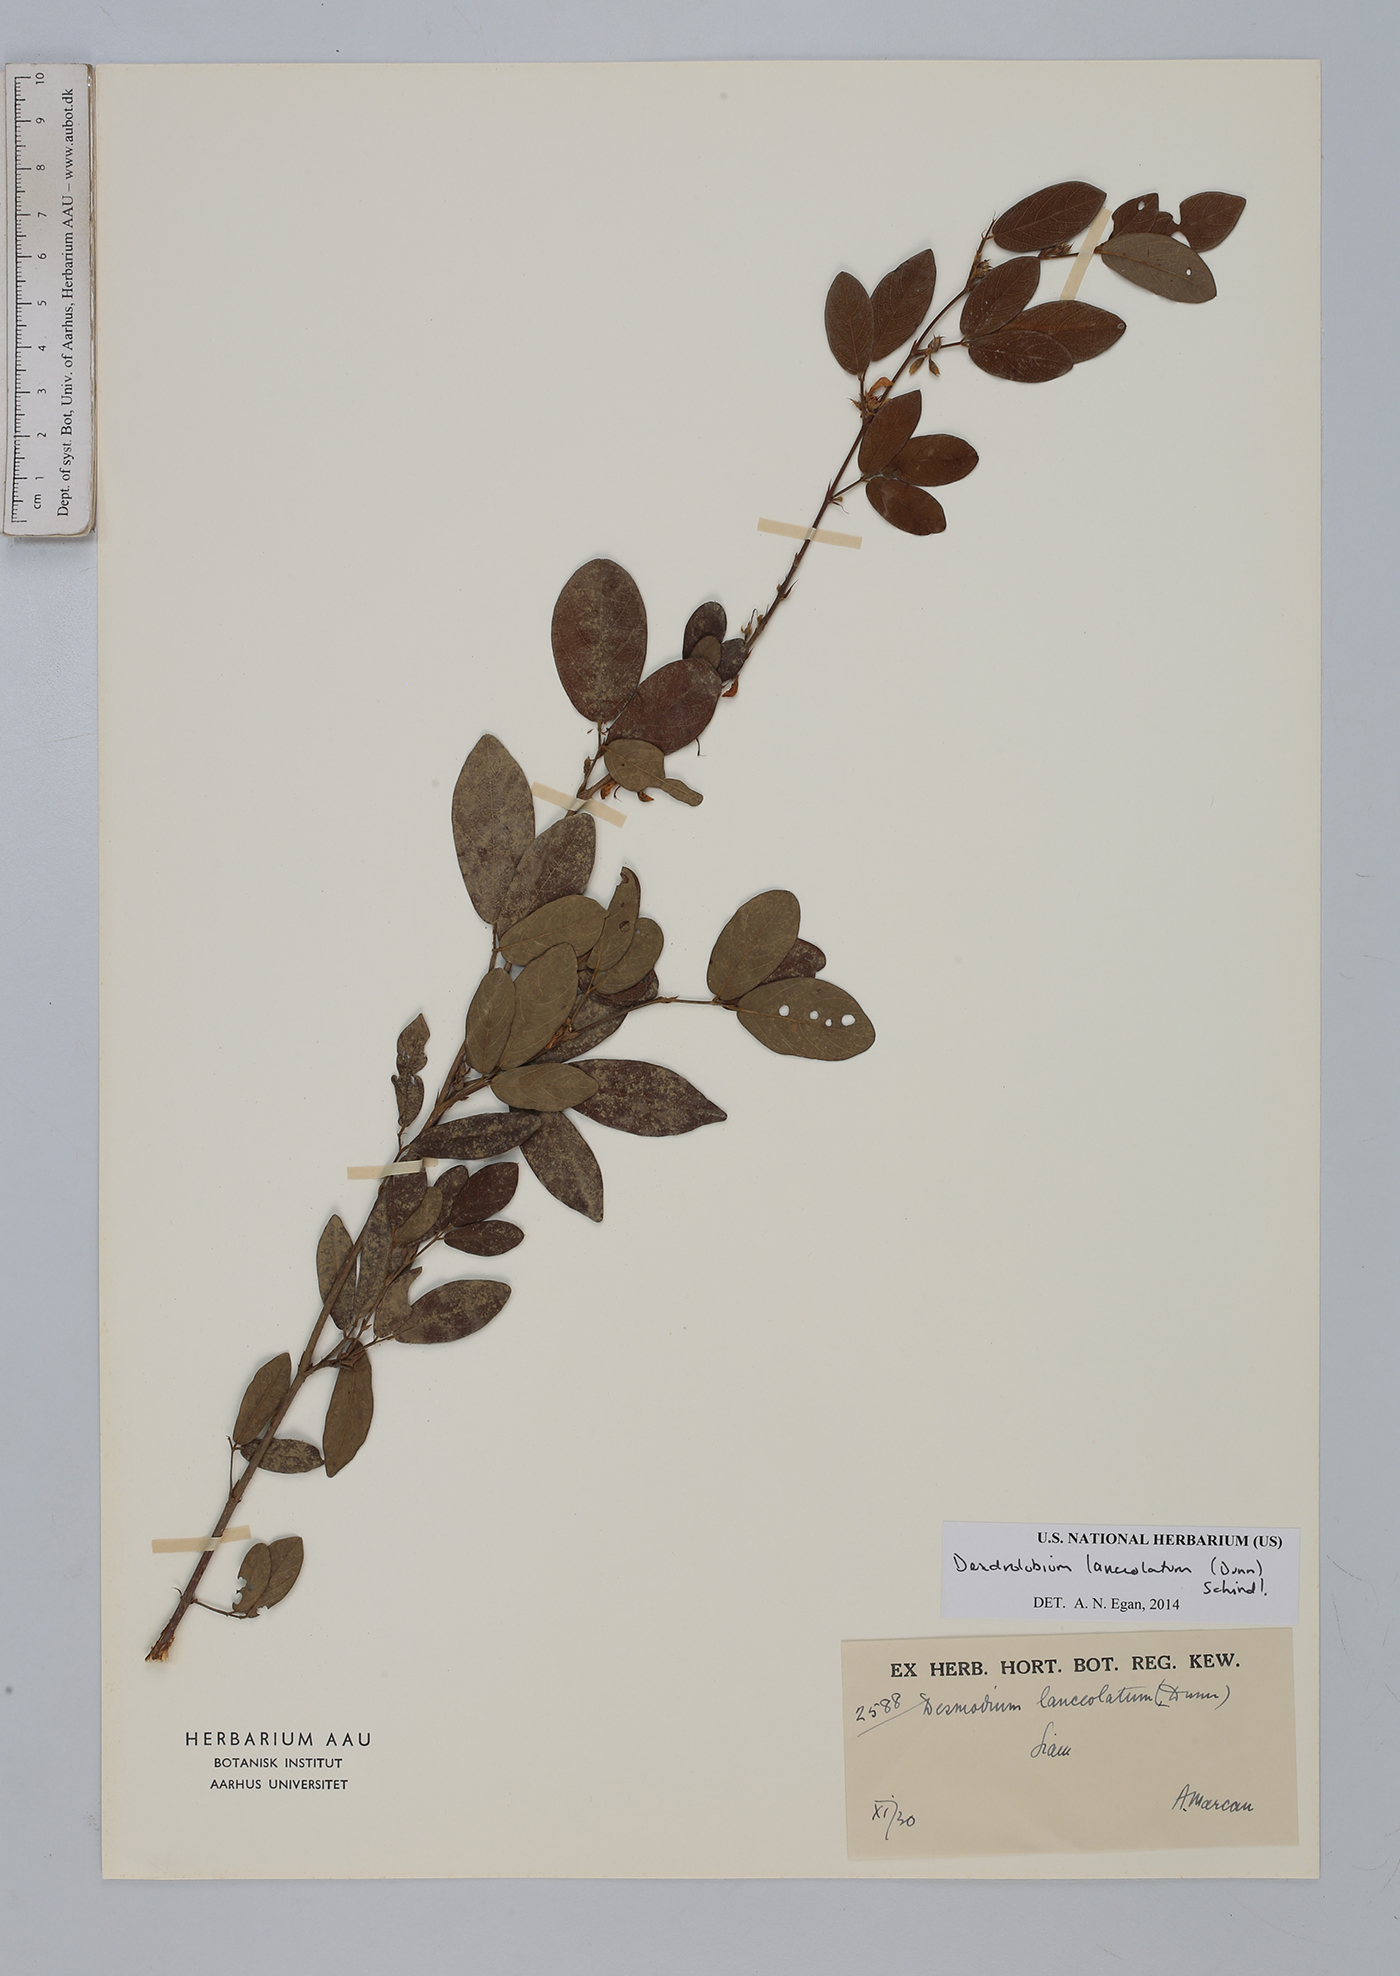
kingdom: Plantae
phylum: Tracheophyta
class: Magnoliopsida
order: Fabales
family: Fabaceae
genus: Dendrolobium
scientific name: Dendrolobium lanceolatum
